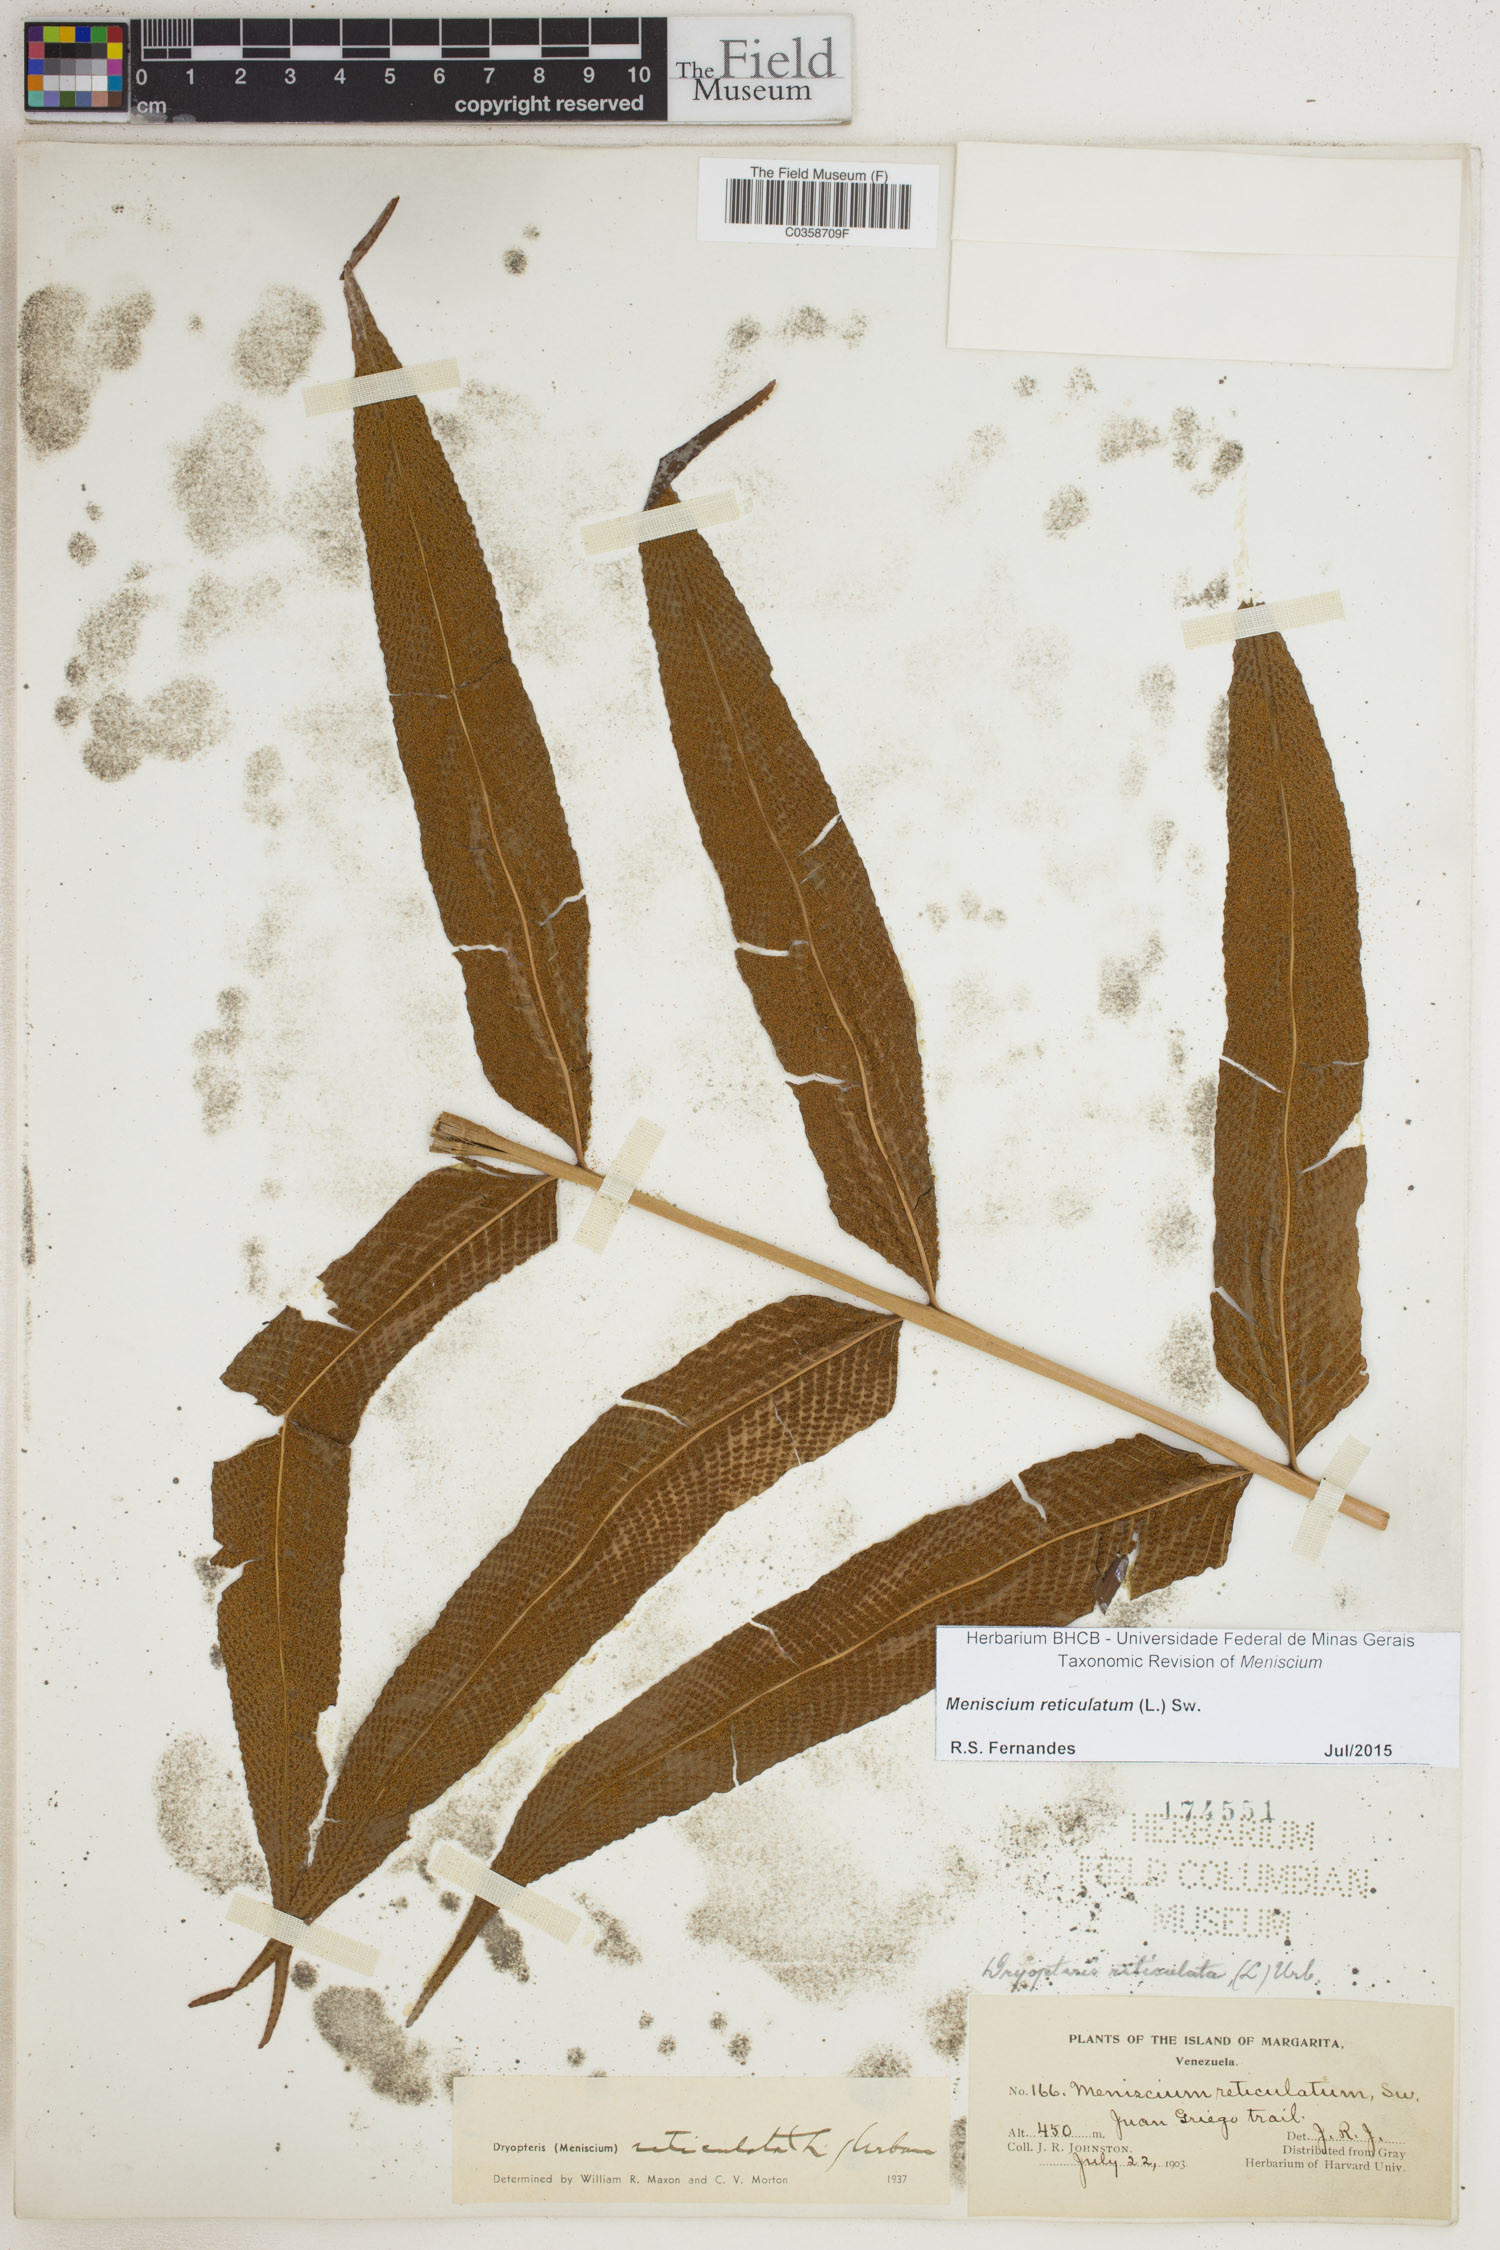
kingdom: Plantae
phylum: Tracheophyta
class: Polypodiopsida
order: Polypodiales
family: Thelypteridaceae
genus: Meniscium
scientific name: Meniscium reticulatum
